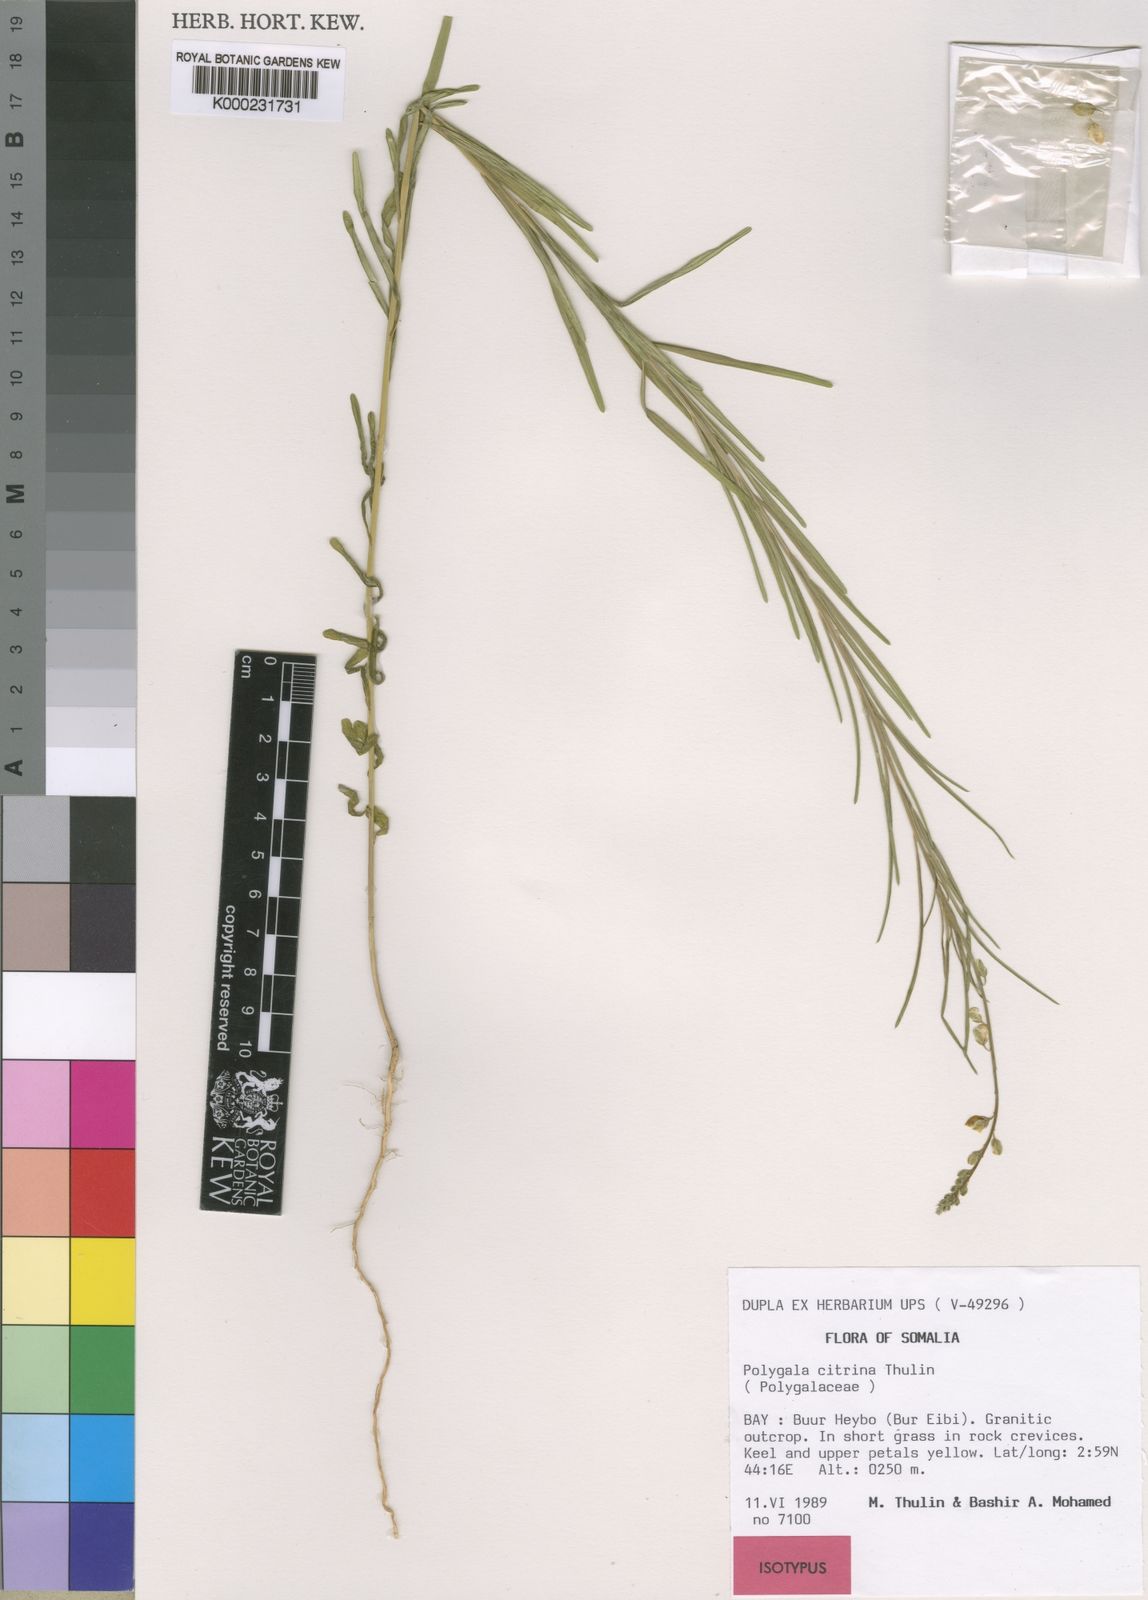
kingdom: Plantae
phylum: Tracheophyta
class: Magnoliopsida
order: Fabales
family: Polygalaceae
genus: Polygala
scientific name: Polygala citrina
